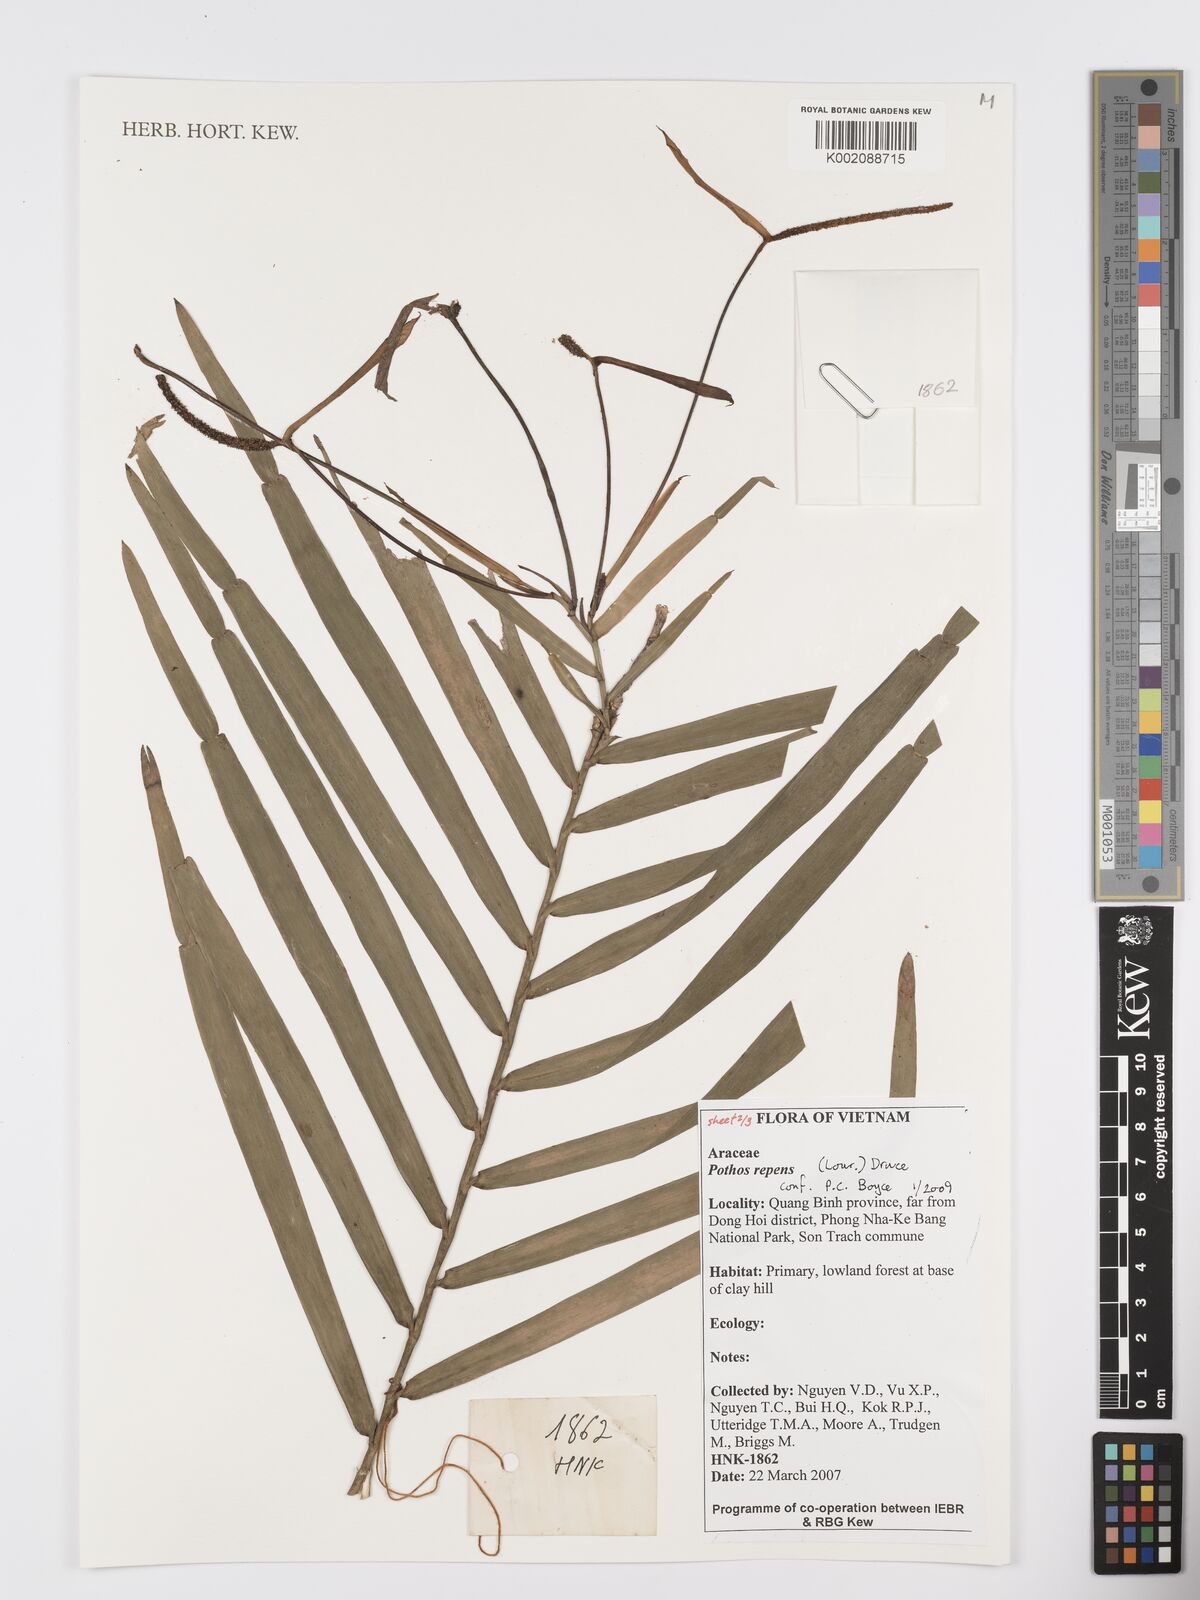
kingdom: Plantae
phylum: Tracheophyta
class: Liliopsida
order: Alismatales
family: Araceae
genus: Pothos
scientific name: Pothos repens
